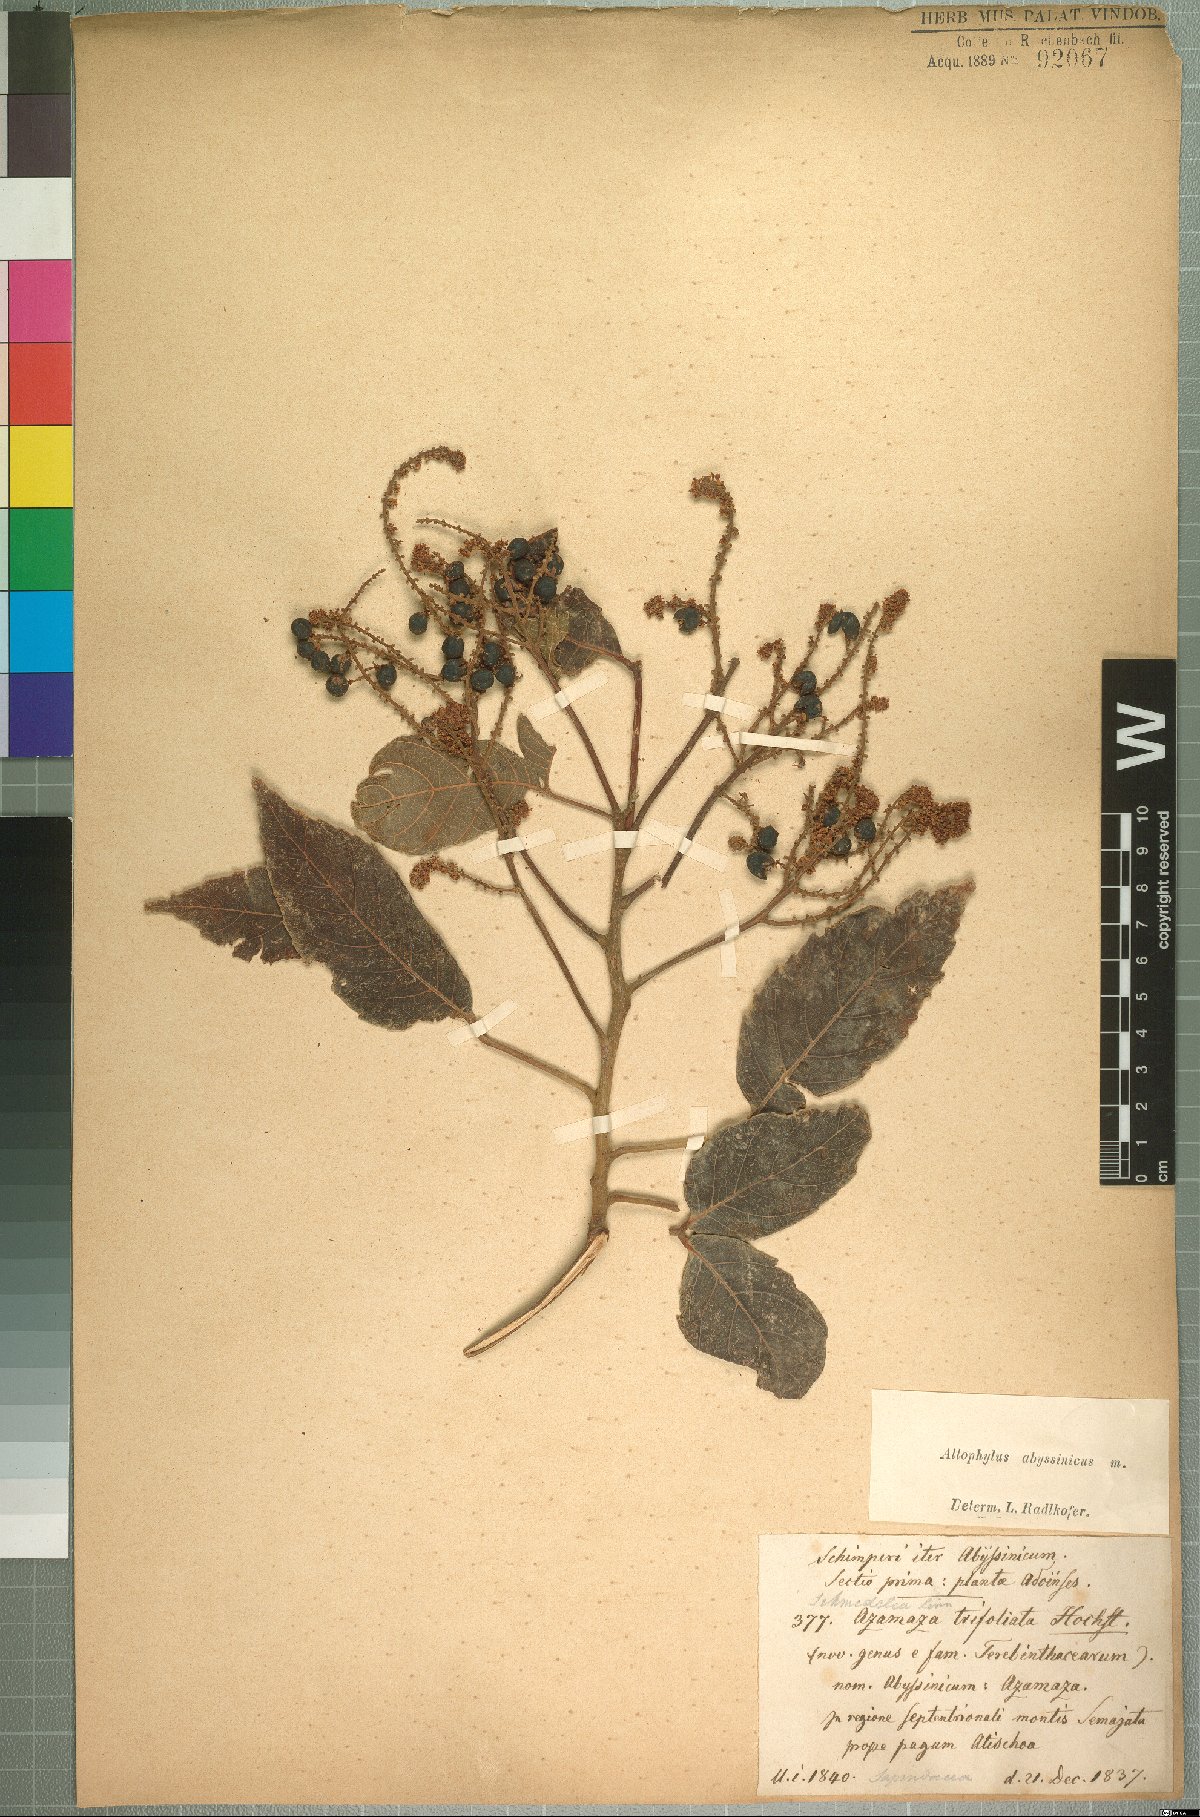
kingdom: Plantae
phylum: Tracheophyta
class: Magnoliopsida
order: Sapindales
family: Sapindaceae
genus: Allophylus
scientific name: Allophylus abyssinicus
